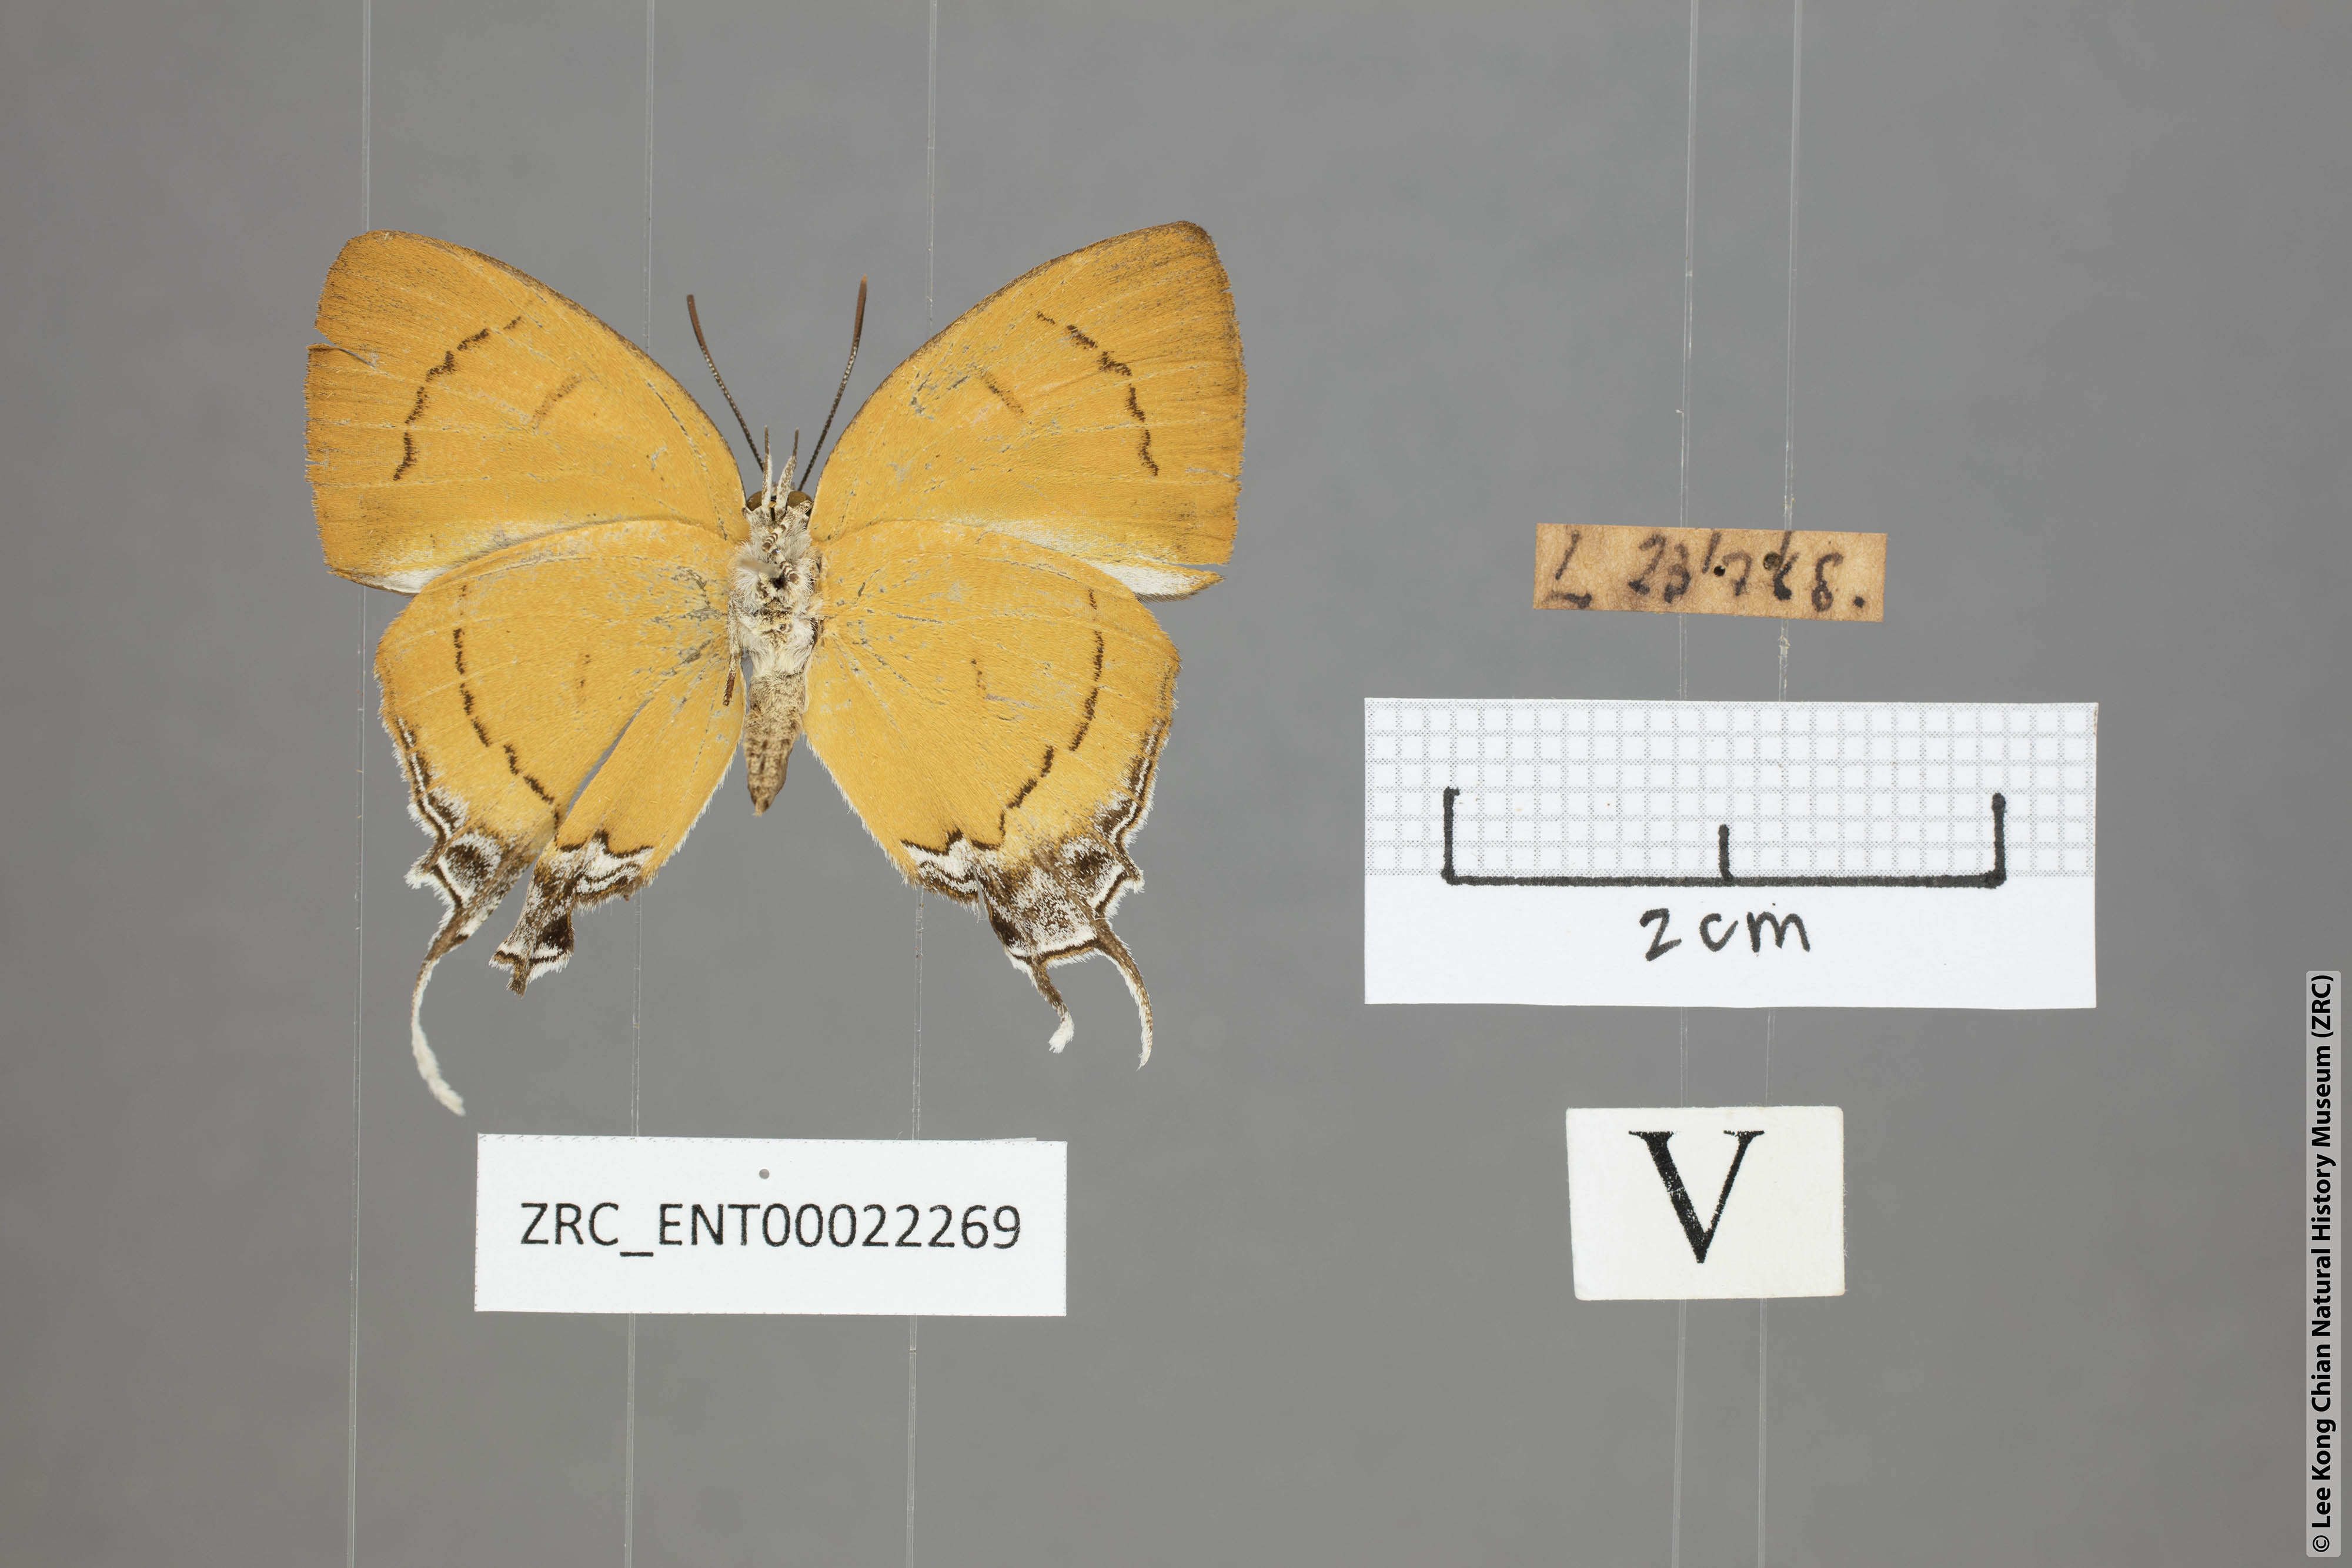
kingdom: Animalia
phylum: Arthropoda
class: Insecta
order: Lepidoptera
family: Lycaenidae
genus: Thamala
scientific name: Thamala marciana
